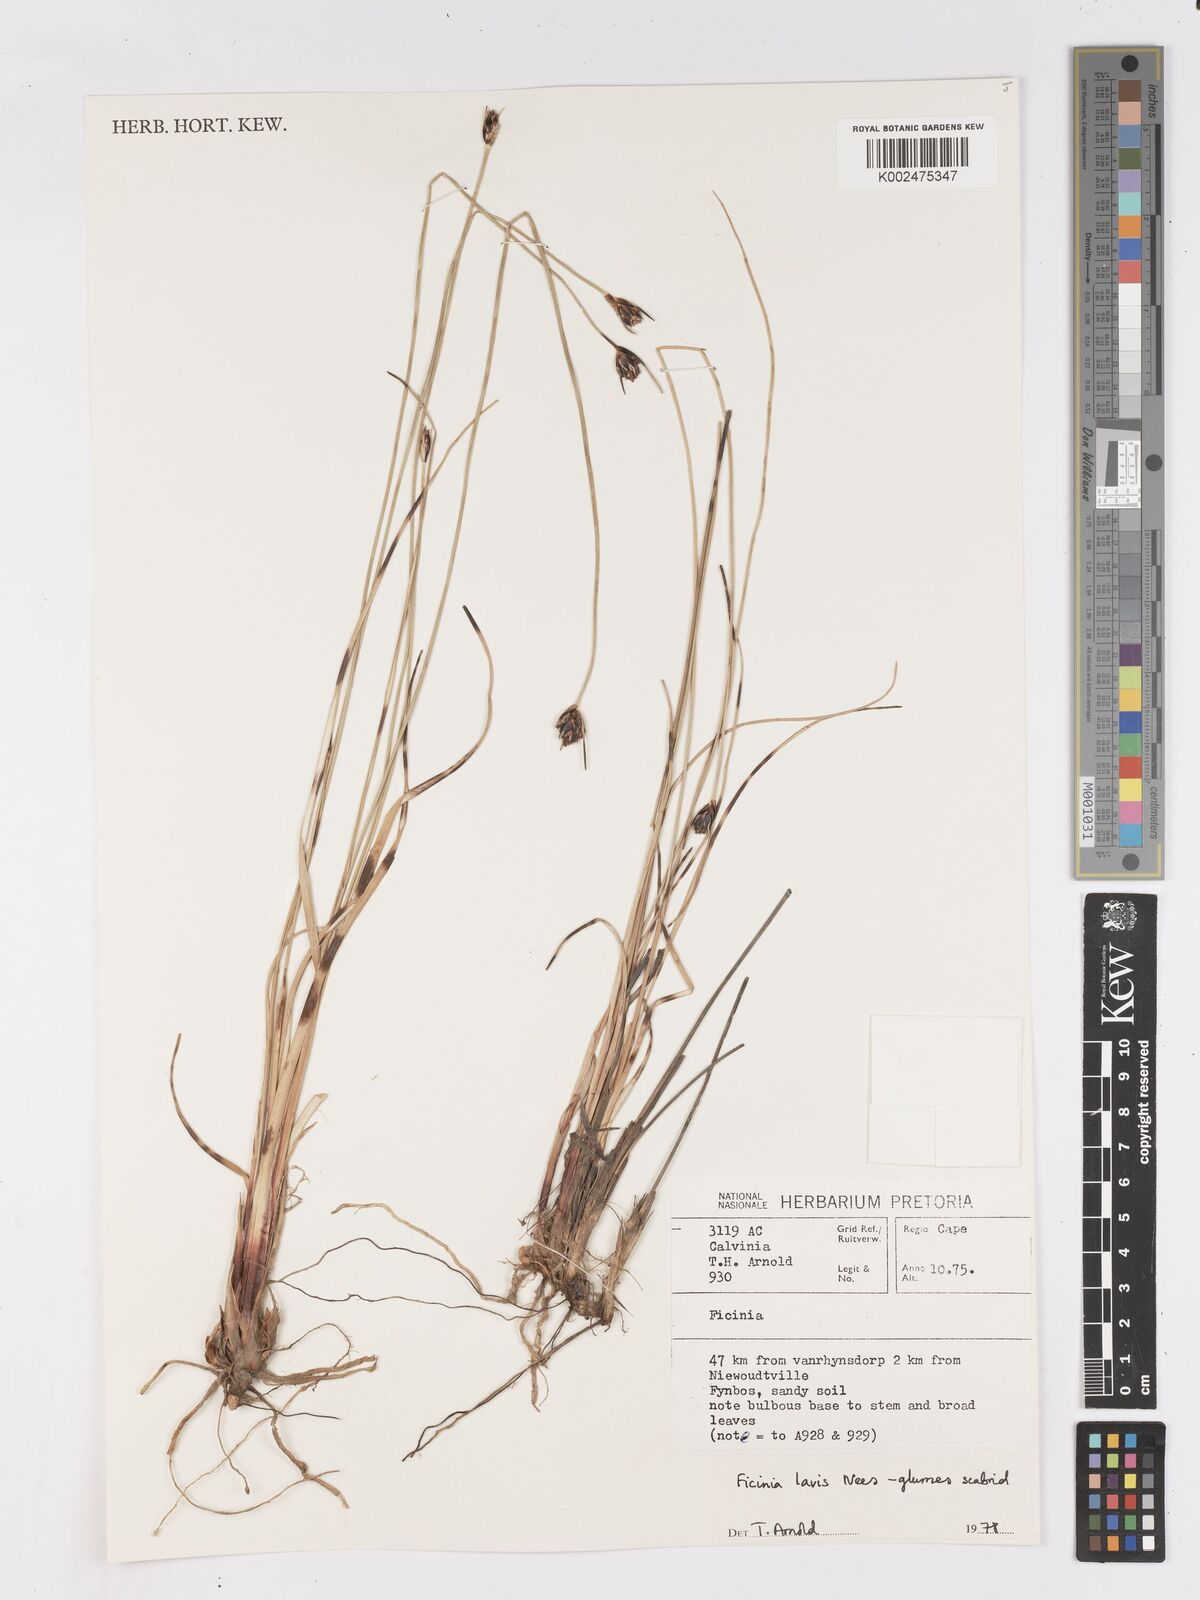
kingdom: Plantae
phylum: Tracheophyta
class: Liliopsida
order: Poales
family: Cyperaceae
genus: Ficinia
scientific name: Ficinia laevis
